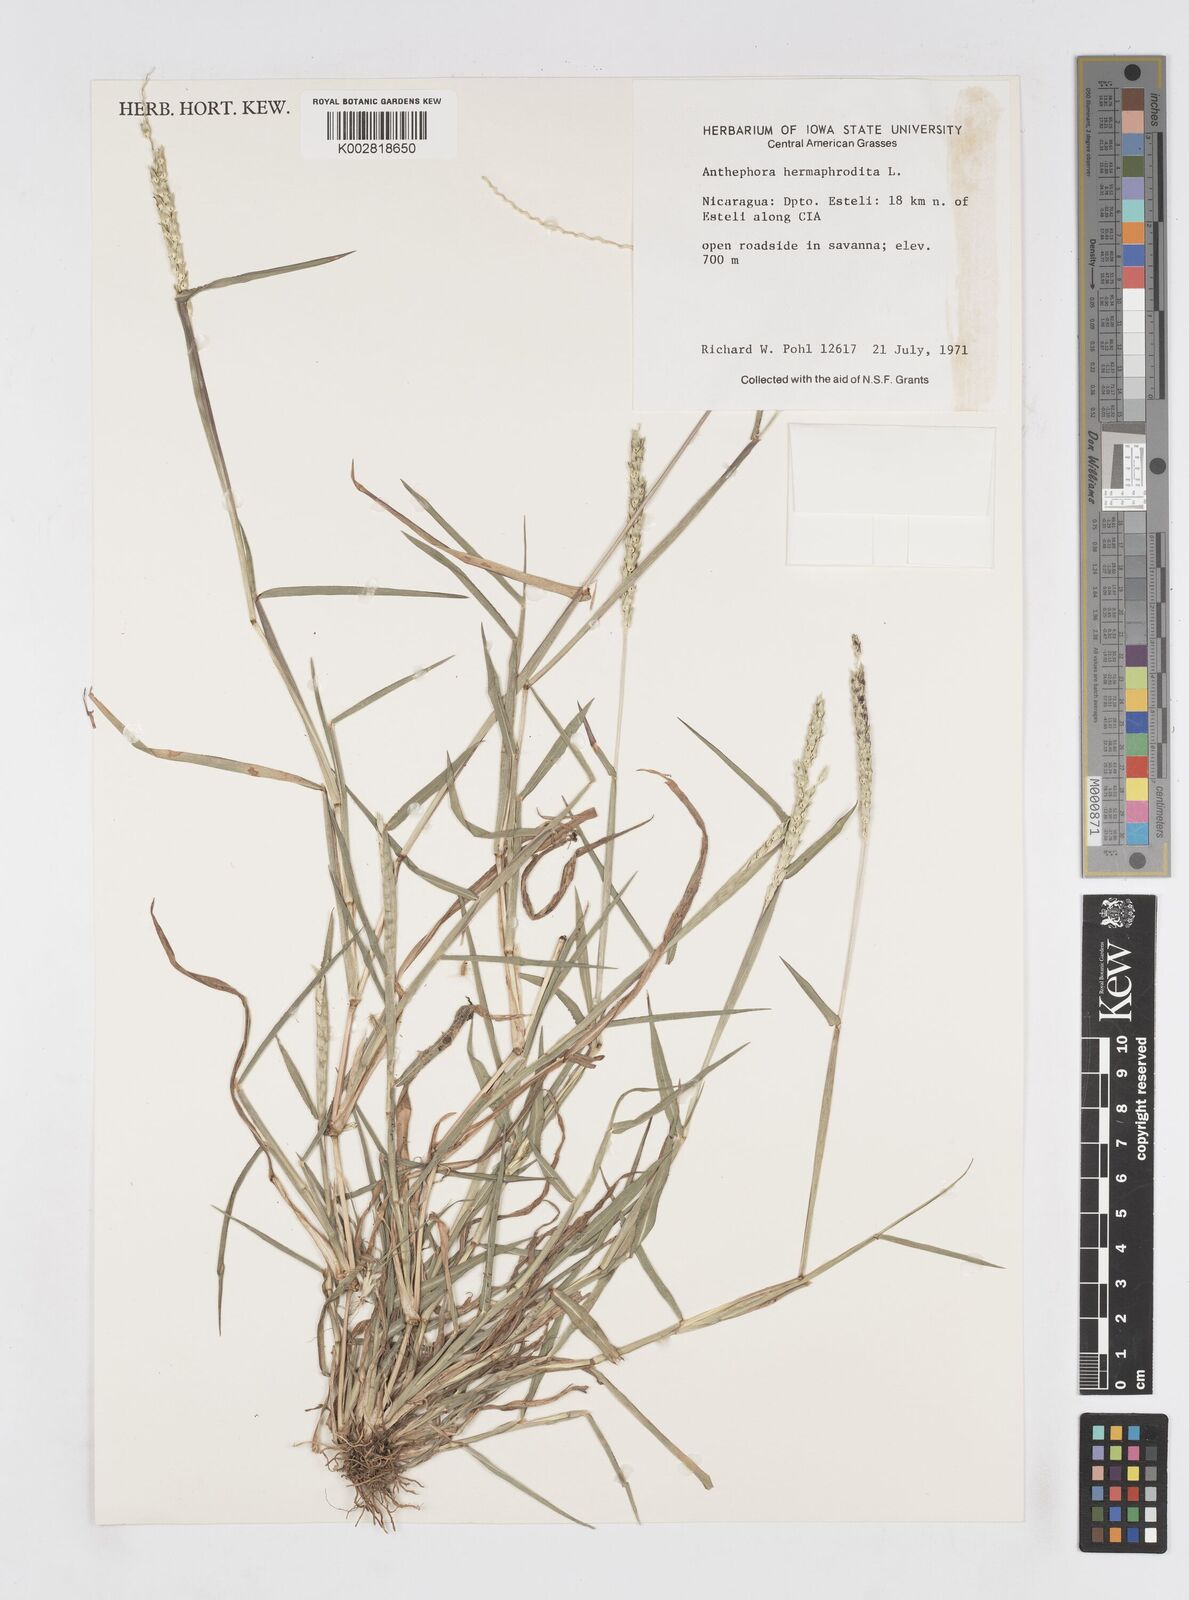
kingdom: Plantae
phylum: Tracheophyta
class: Liliopsida
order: Poales
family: Poaceae
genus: Anthephora
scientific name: Anthephora hermaphrodita
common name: Oldfield grass
